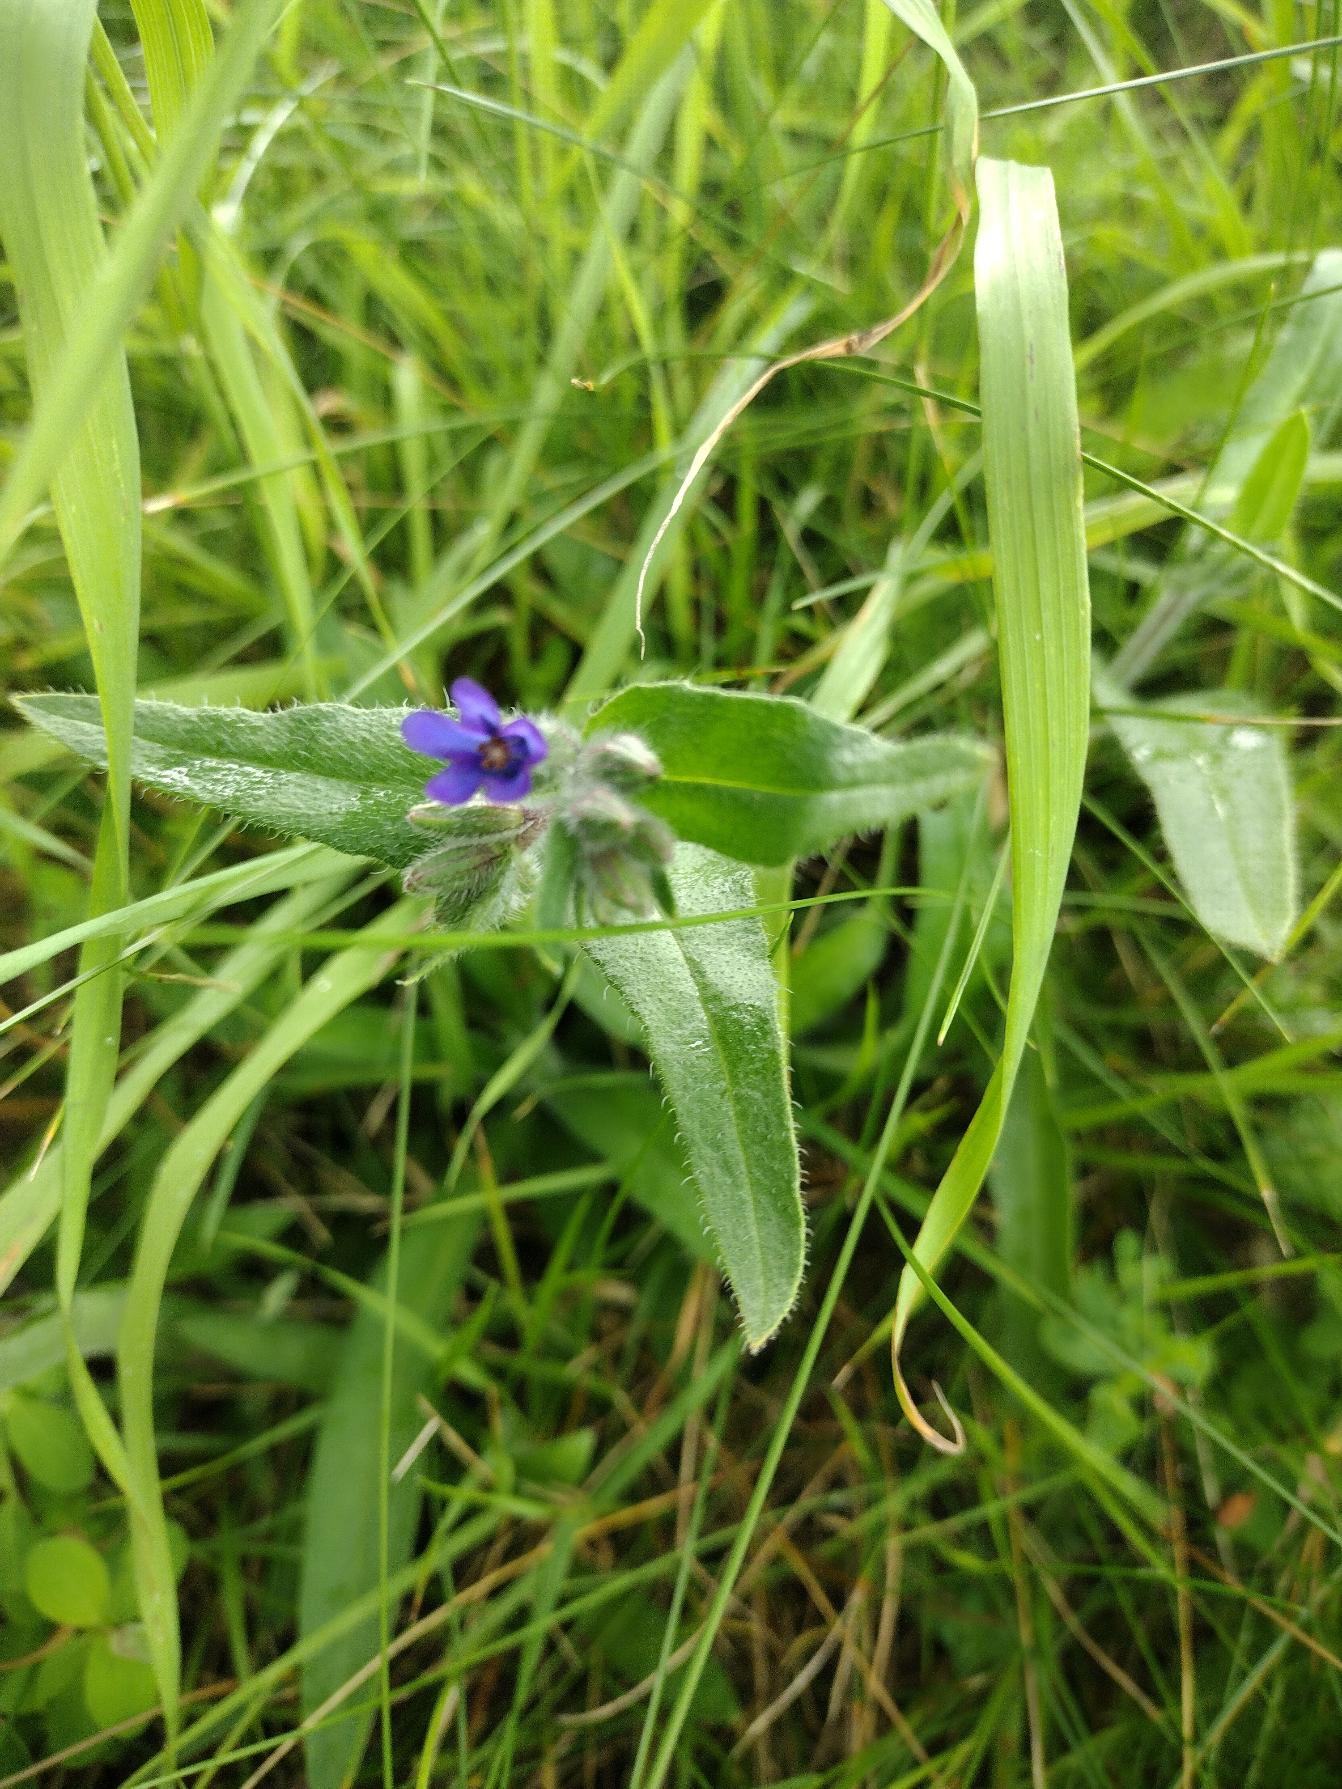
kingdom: Plantae
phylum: Tracheophyta
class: Magnoliopsida
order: Boraginales
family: Boraginaceae
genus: Anchusa
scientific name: Anchusa officinalis
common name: Læge-oksetunge
